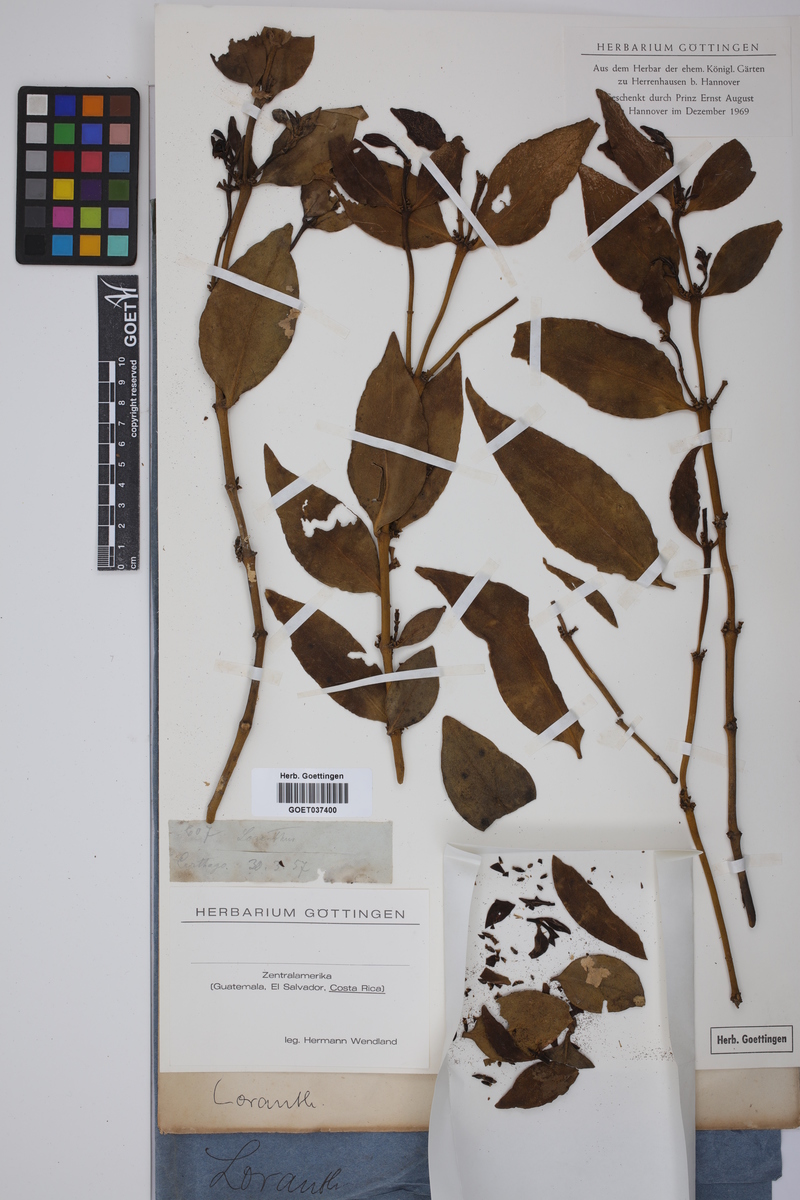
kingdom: Plantae
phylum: Tracheophyta
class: Magnoliopsida
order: Santalales
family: Loranthaceae
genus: Loranthus
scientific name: Loranthus
